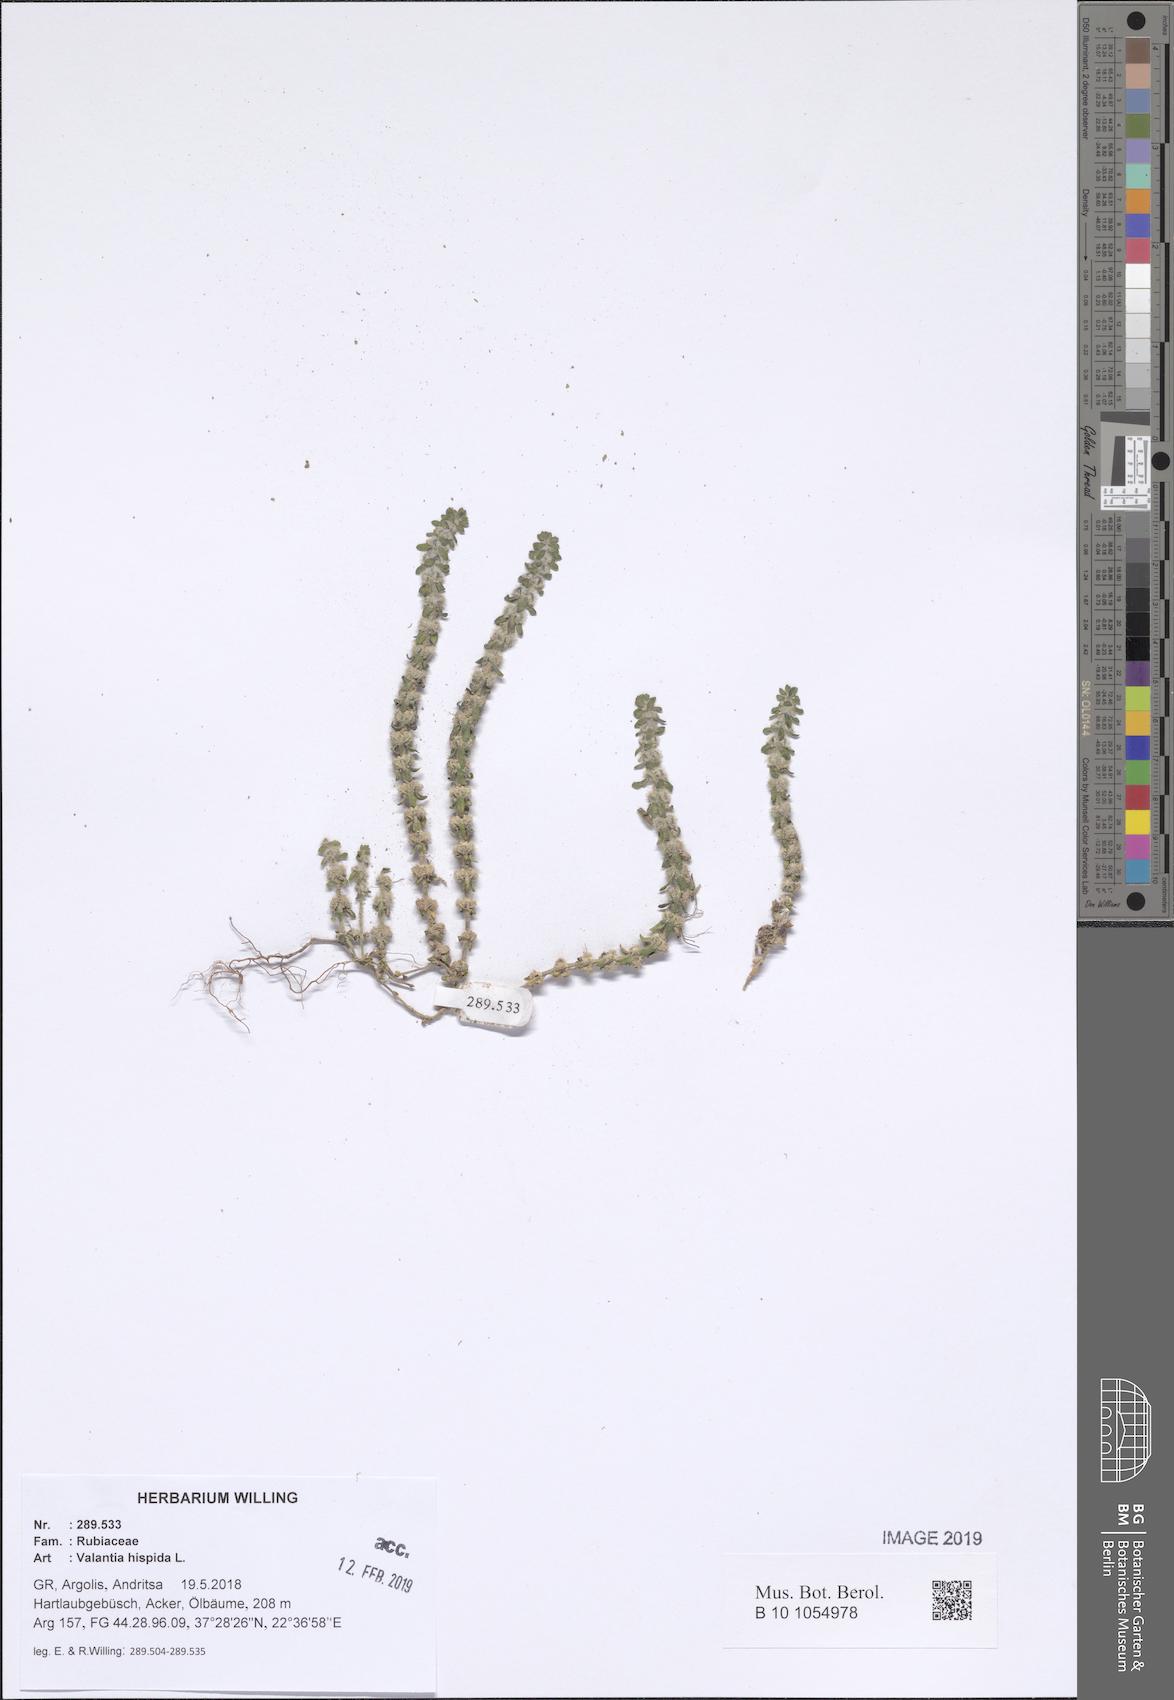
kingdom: Plantae
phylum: Tracheophyta
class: Magnoliopsida
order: Gentianales
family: Rubiaceae
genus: Valantia
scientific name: Valantia hispida
